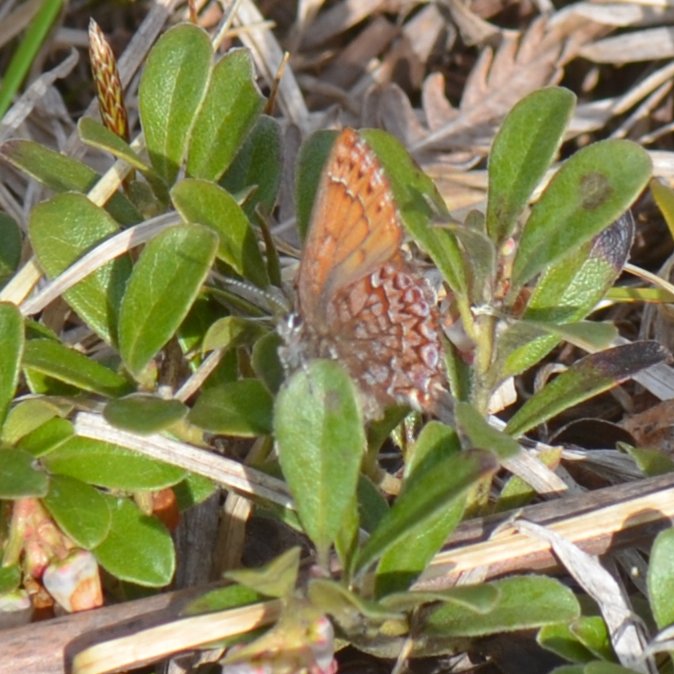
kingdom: Animalia
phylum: Arthropoda
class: Insecta
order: Lepidoptera
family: Lycaenidae
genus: Incisalia
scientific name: Incisalia eryphon
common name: Western Pine Elfin
